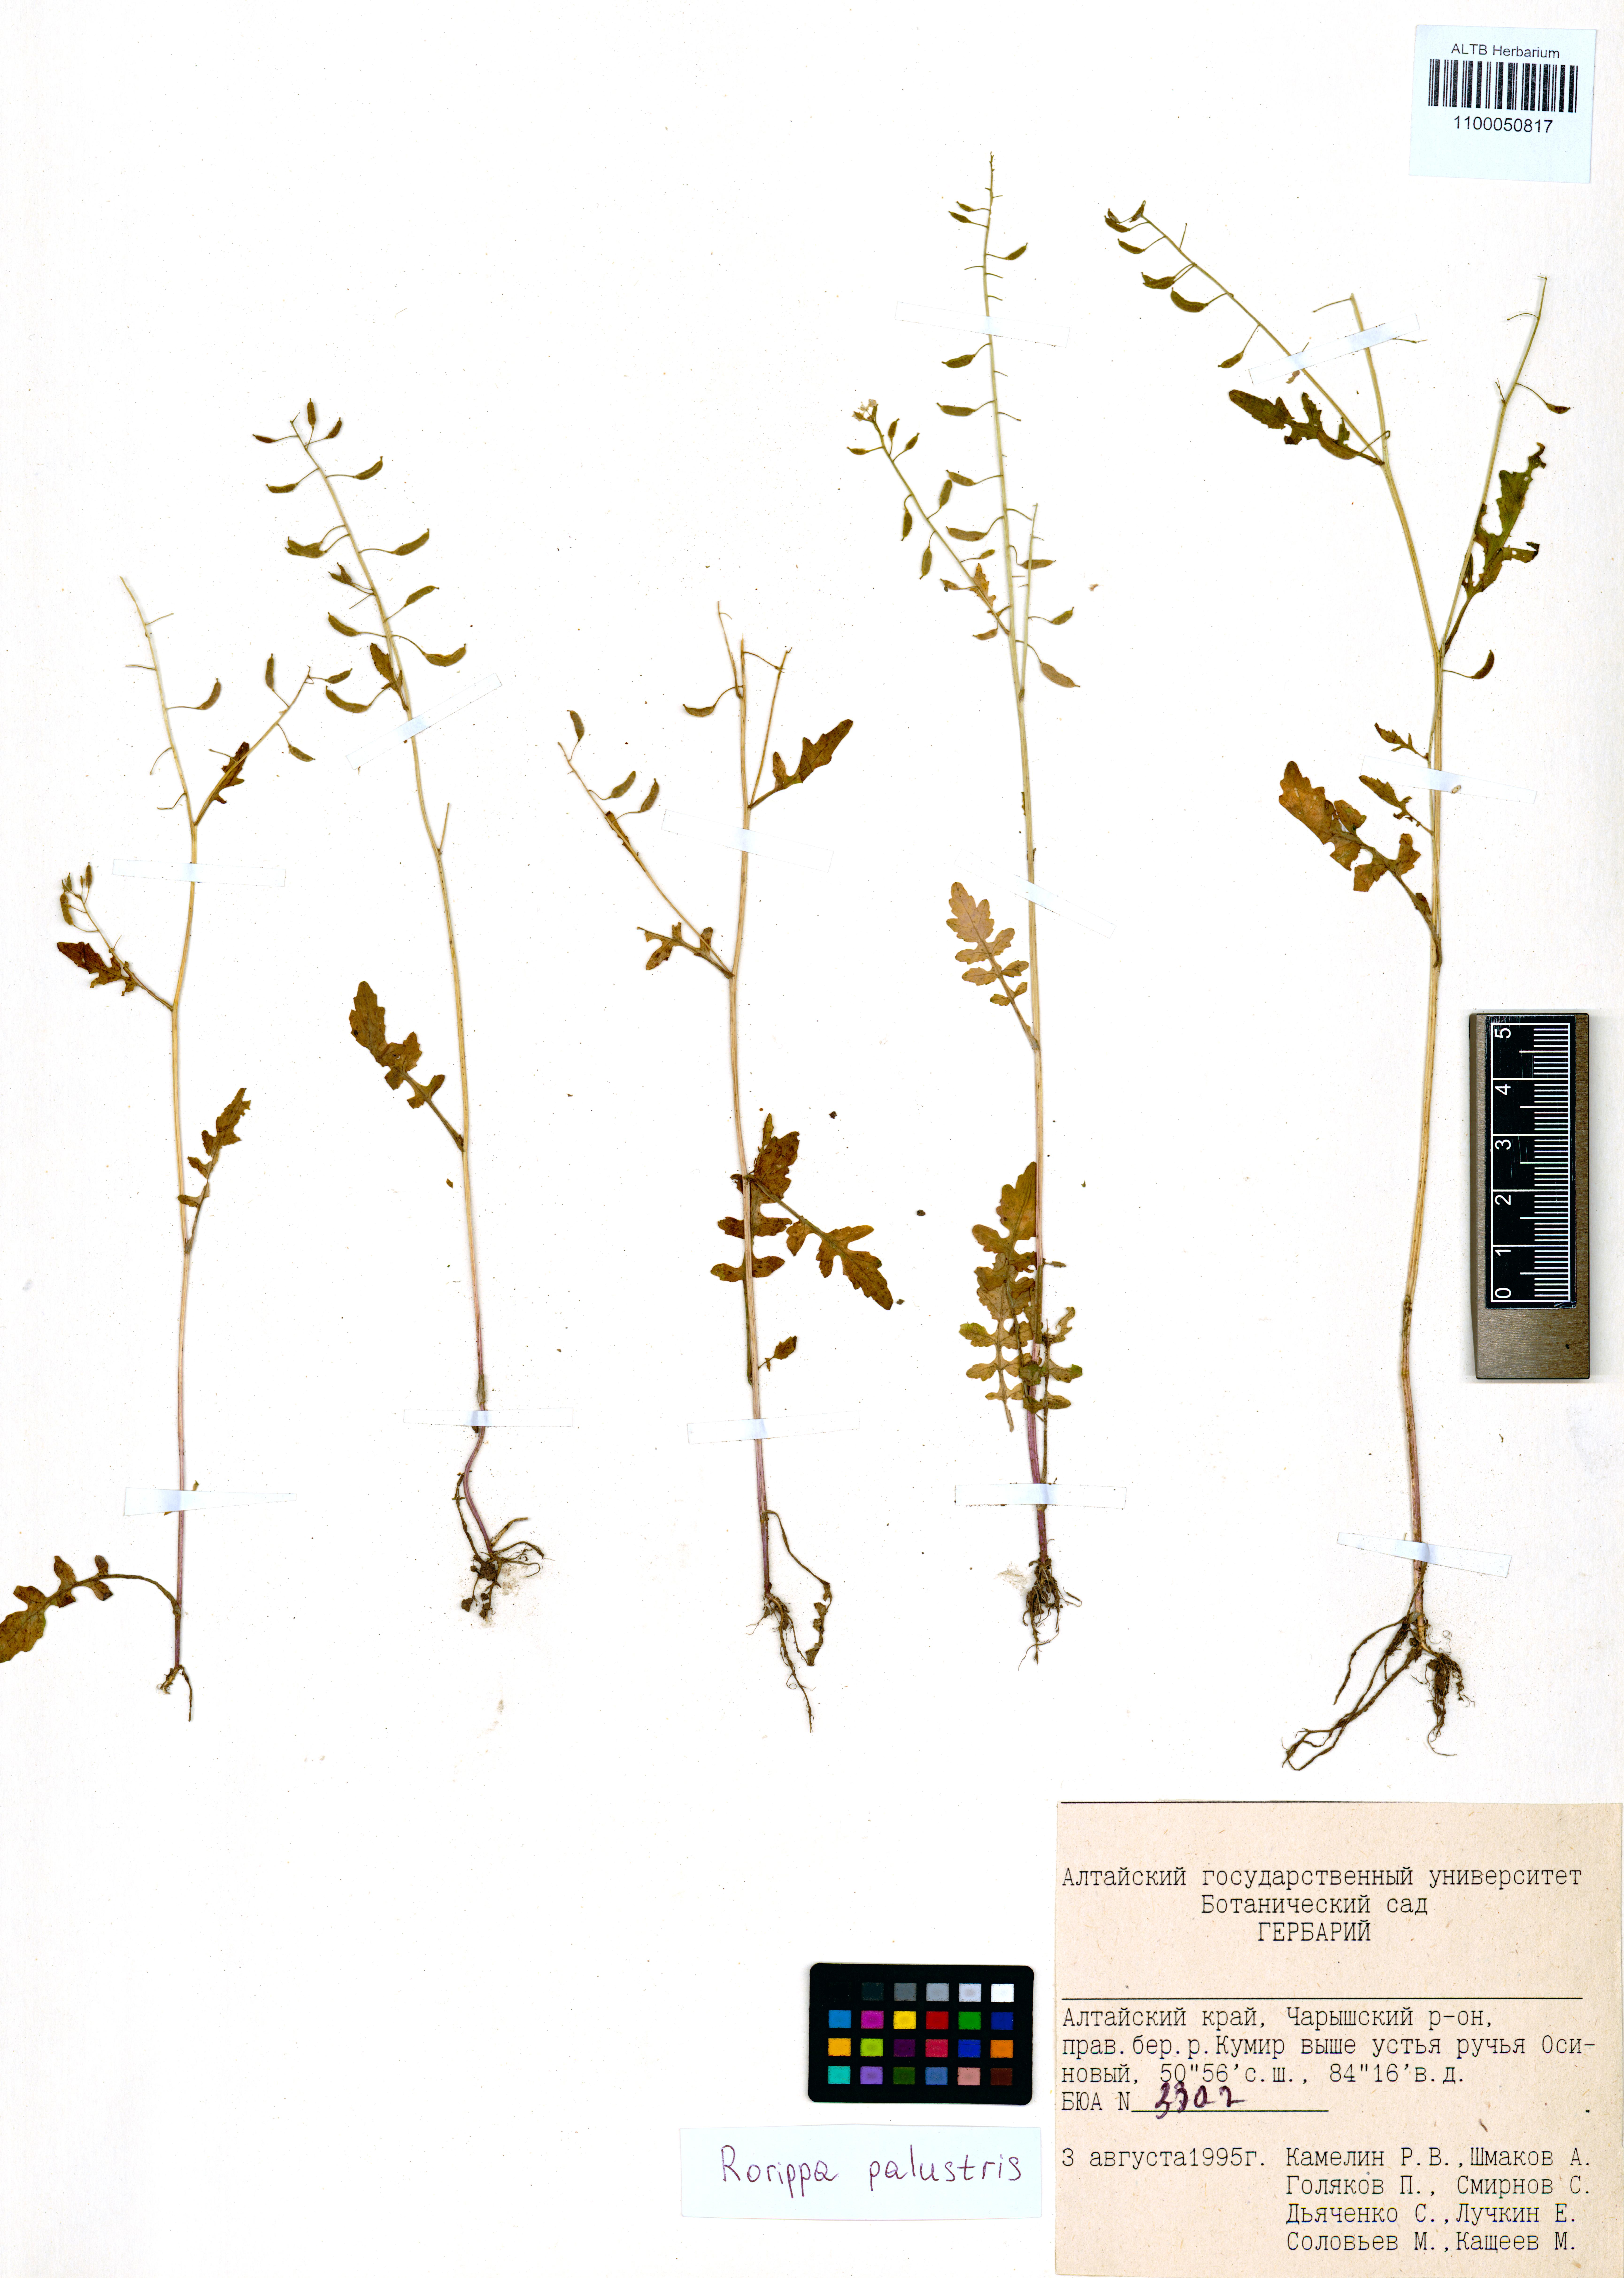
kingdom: Plantae
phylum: Tracheophyta
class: Magnoliopsida
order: Brassicales
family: Brassicaceae
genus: Rorippa
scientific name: Rorippa palustris
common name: Marsh yellow-cress
